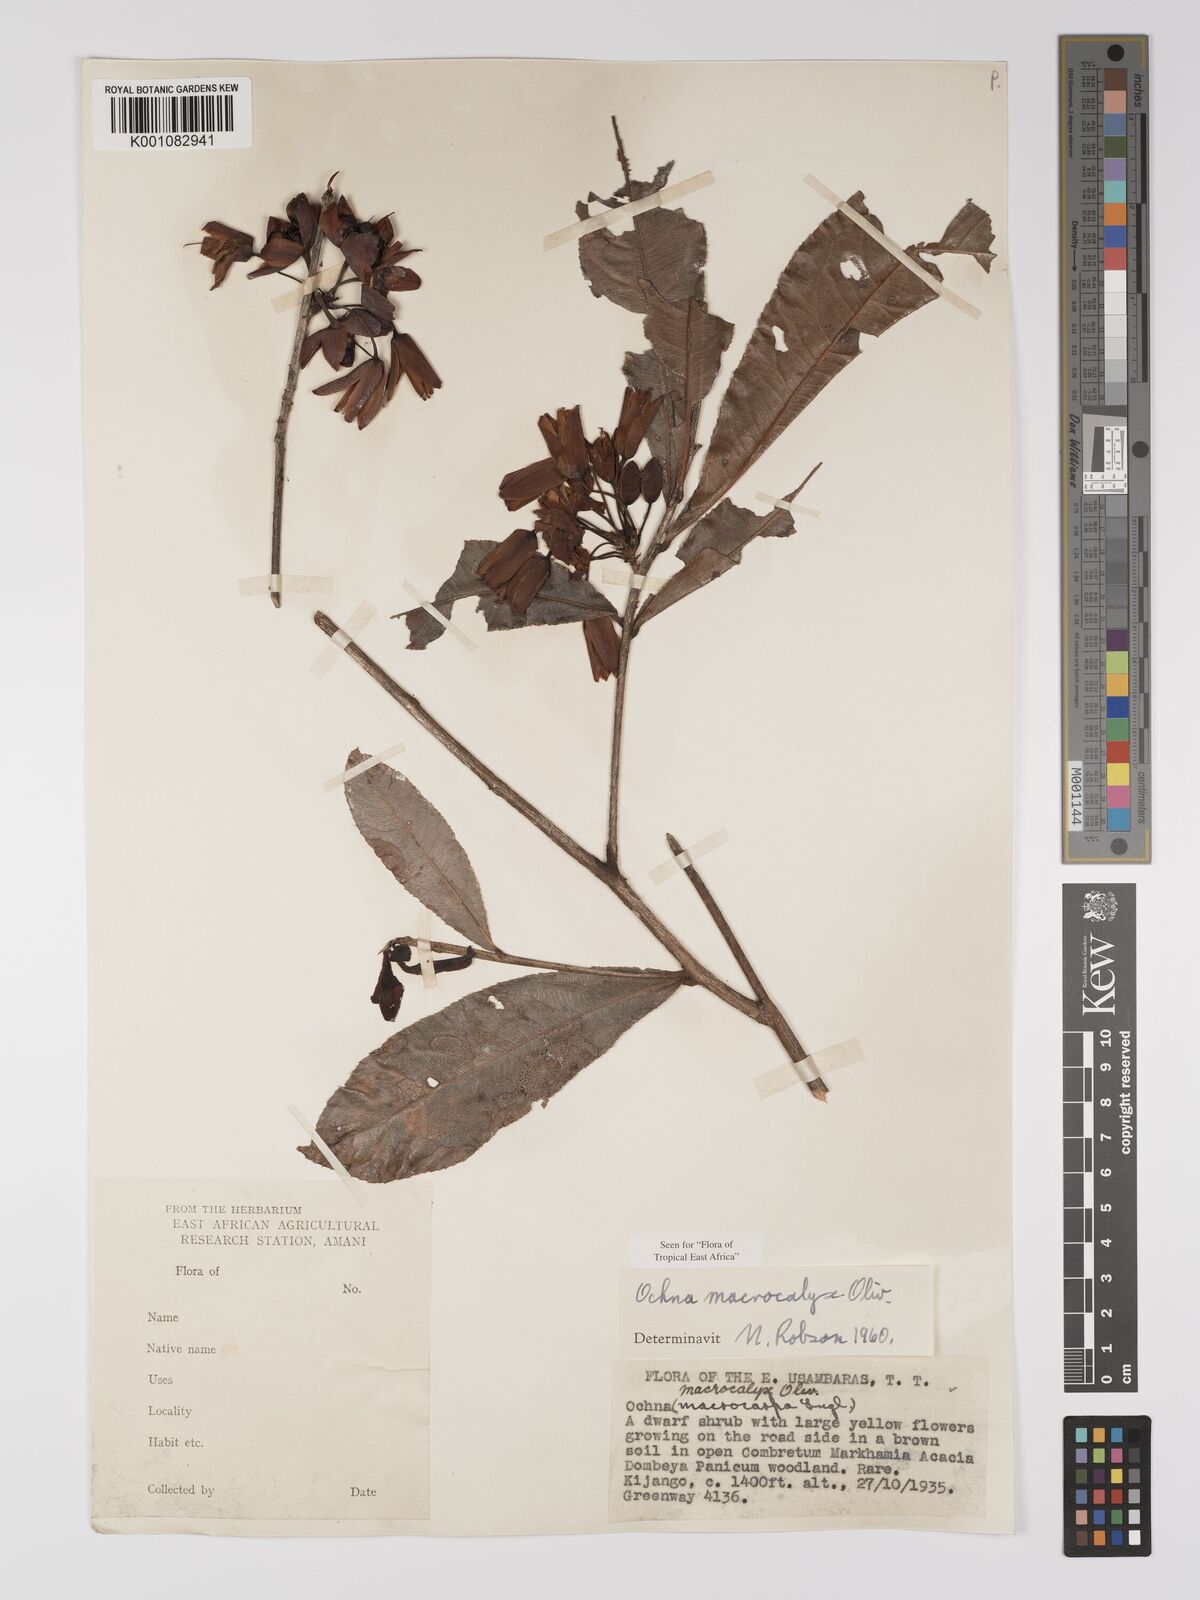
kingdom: Plantae
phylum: Tracheophyta
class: Magnoliopsida
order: Malpighiales
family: Ochnaceae
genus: Ochna
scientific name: Ochna macrocalyx
